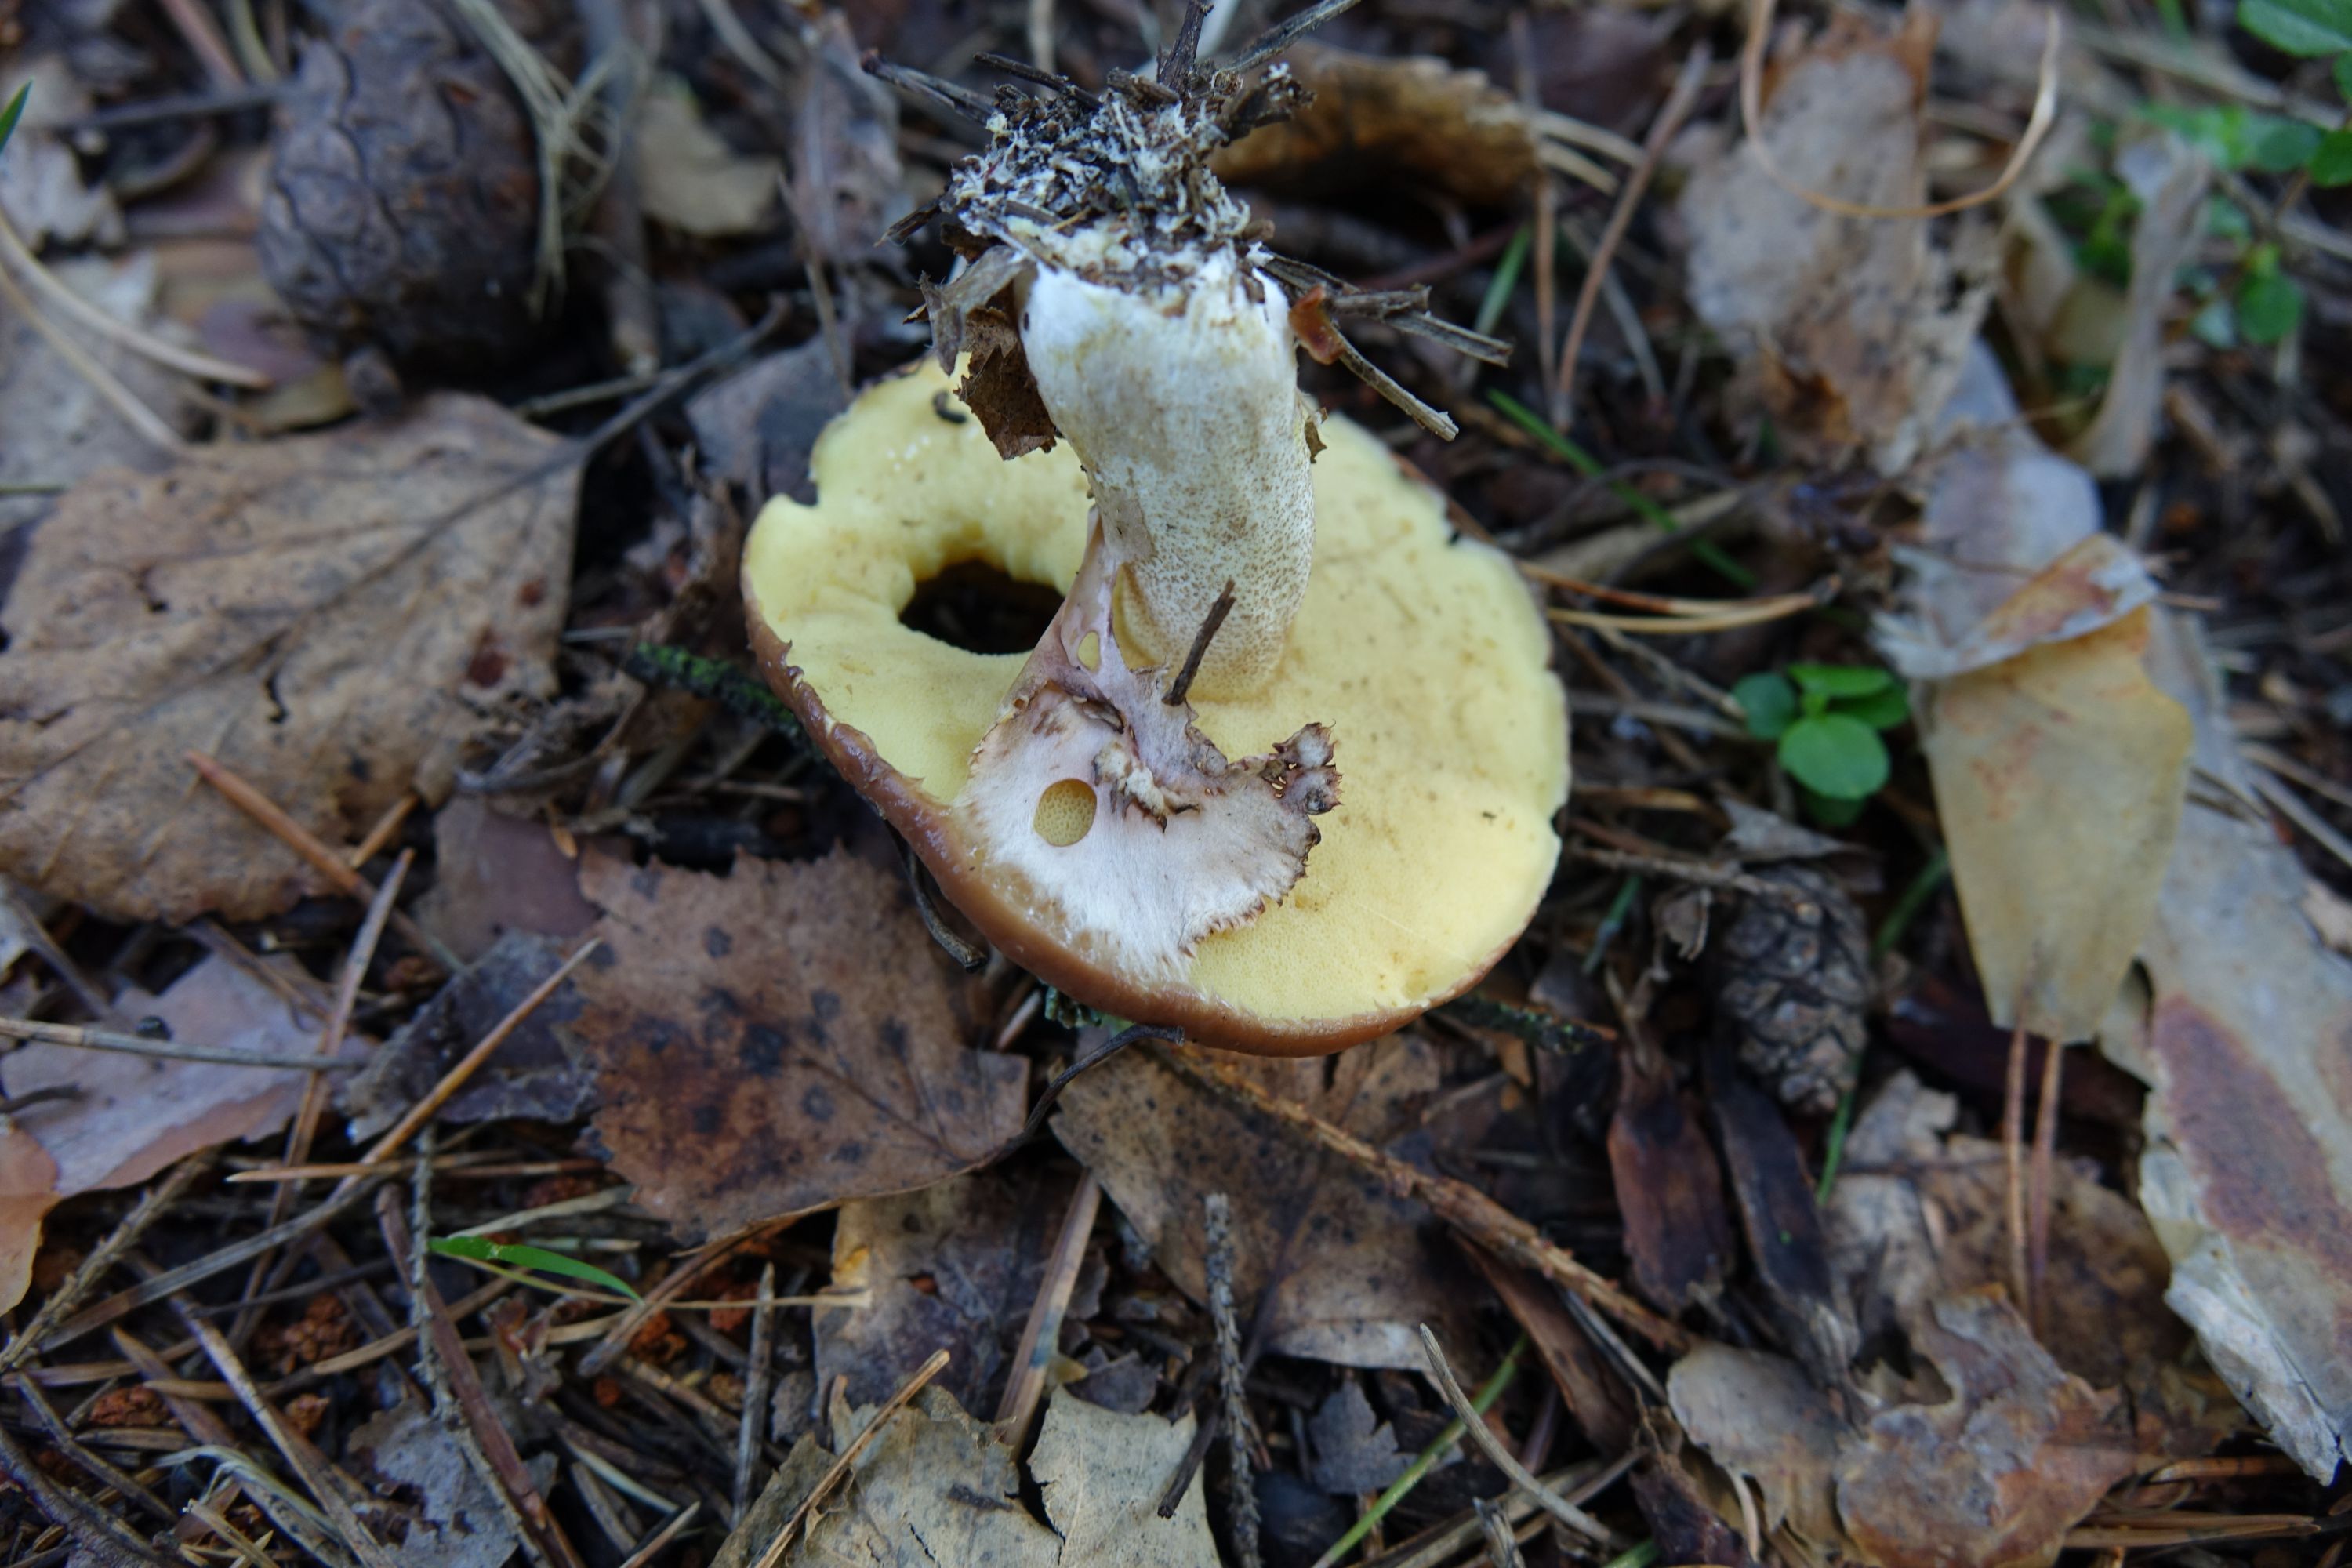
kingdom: Fungi
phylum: Basidiomycota
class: Agaricomycetes
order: Boletales
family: Suillaceae
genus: Suillus
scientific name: Suillus luteus
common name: Slippery jack
